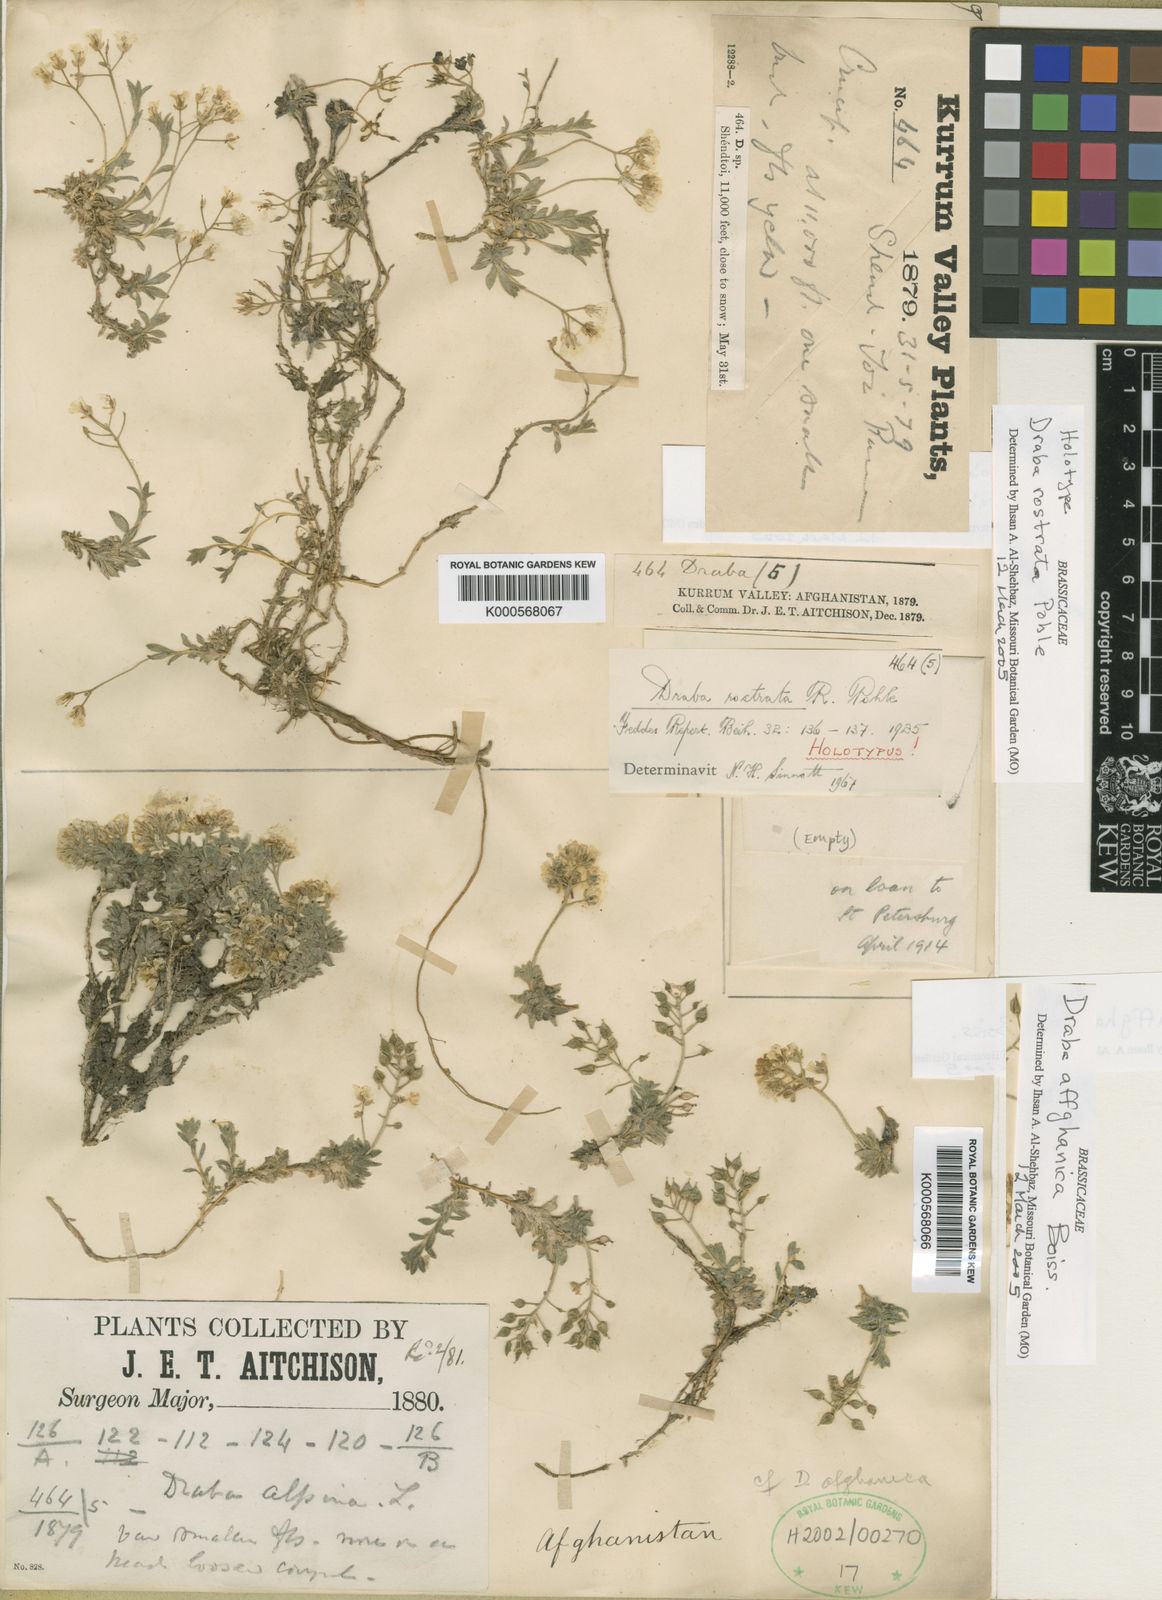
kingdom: Plantae
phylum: Tracheophyta
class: Magnoliopsida
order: Brassicales
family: Brassicaceae
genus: Draba
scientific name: Draba affghanica
